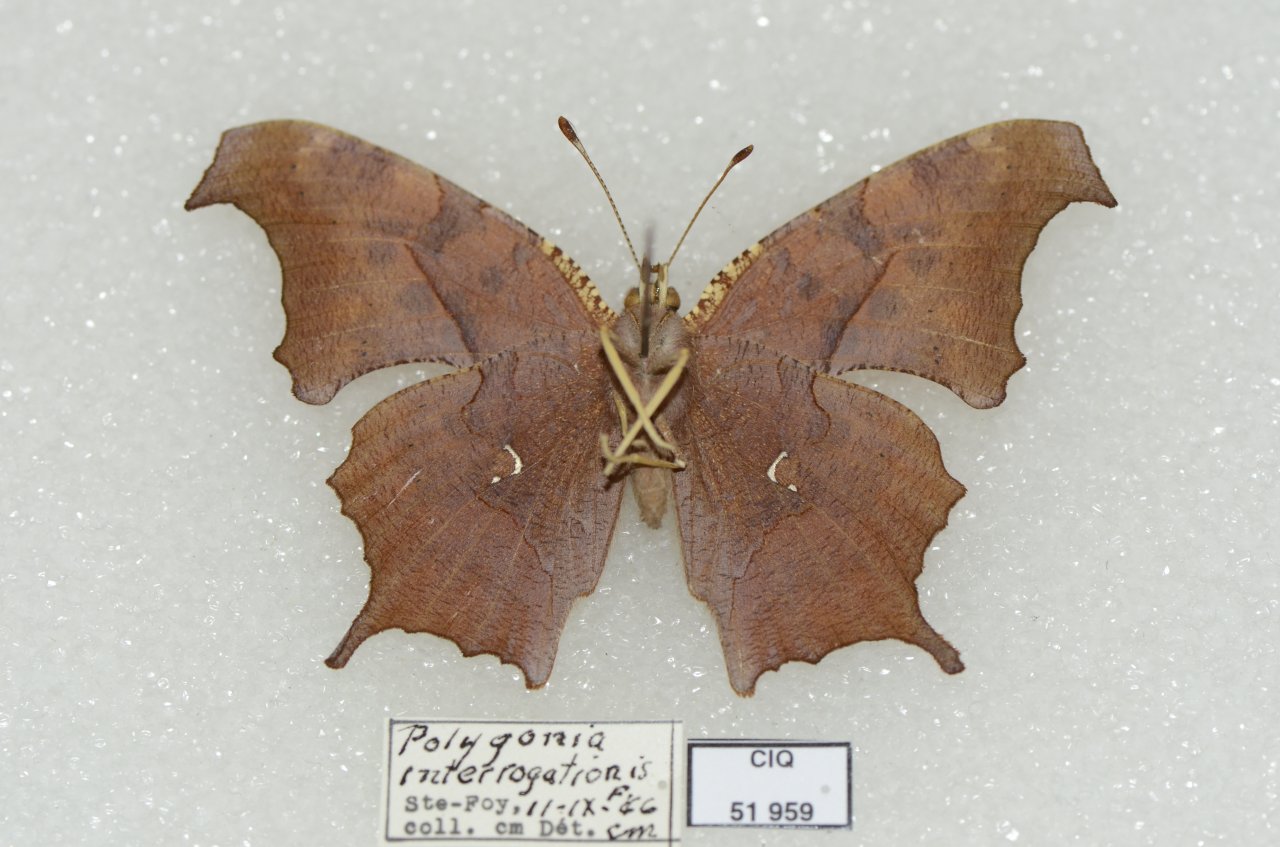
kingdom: Animalia
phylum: Arthropoda
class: Insecta
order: Lepidoptera
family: Nymphalidae
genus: Polygonia
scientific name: Polygonia interrogationis
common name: Question Mark
